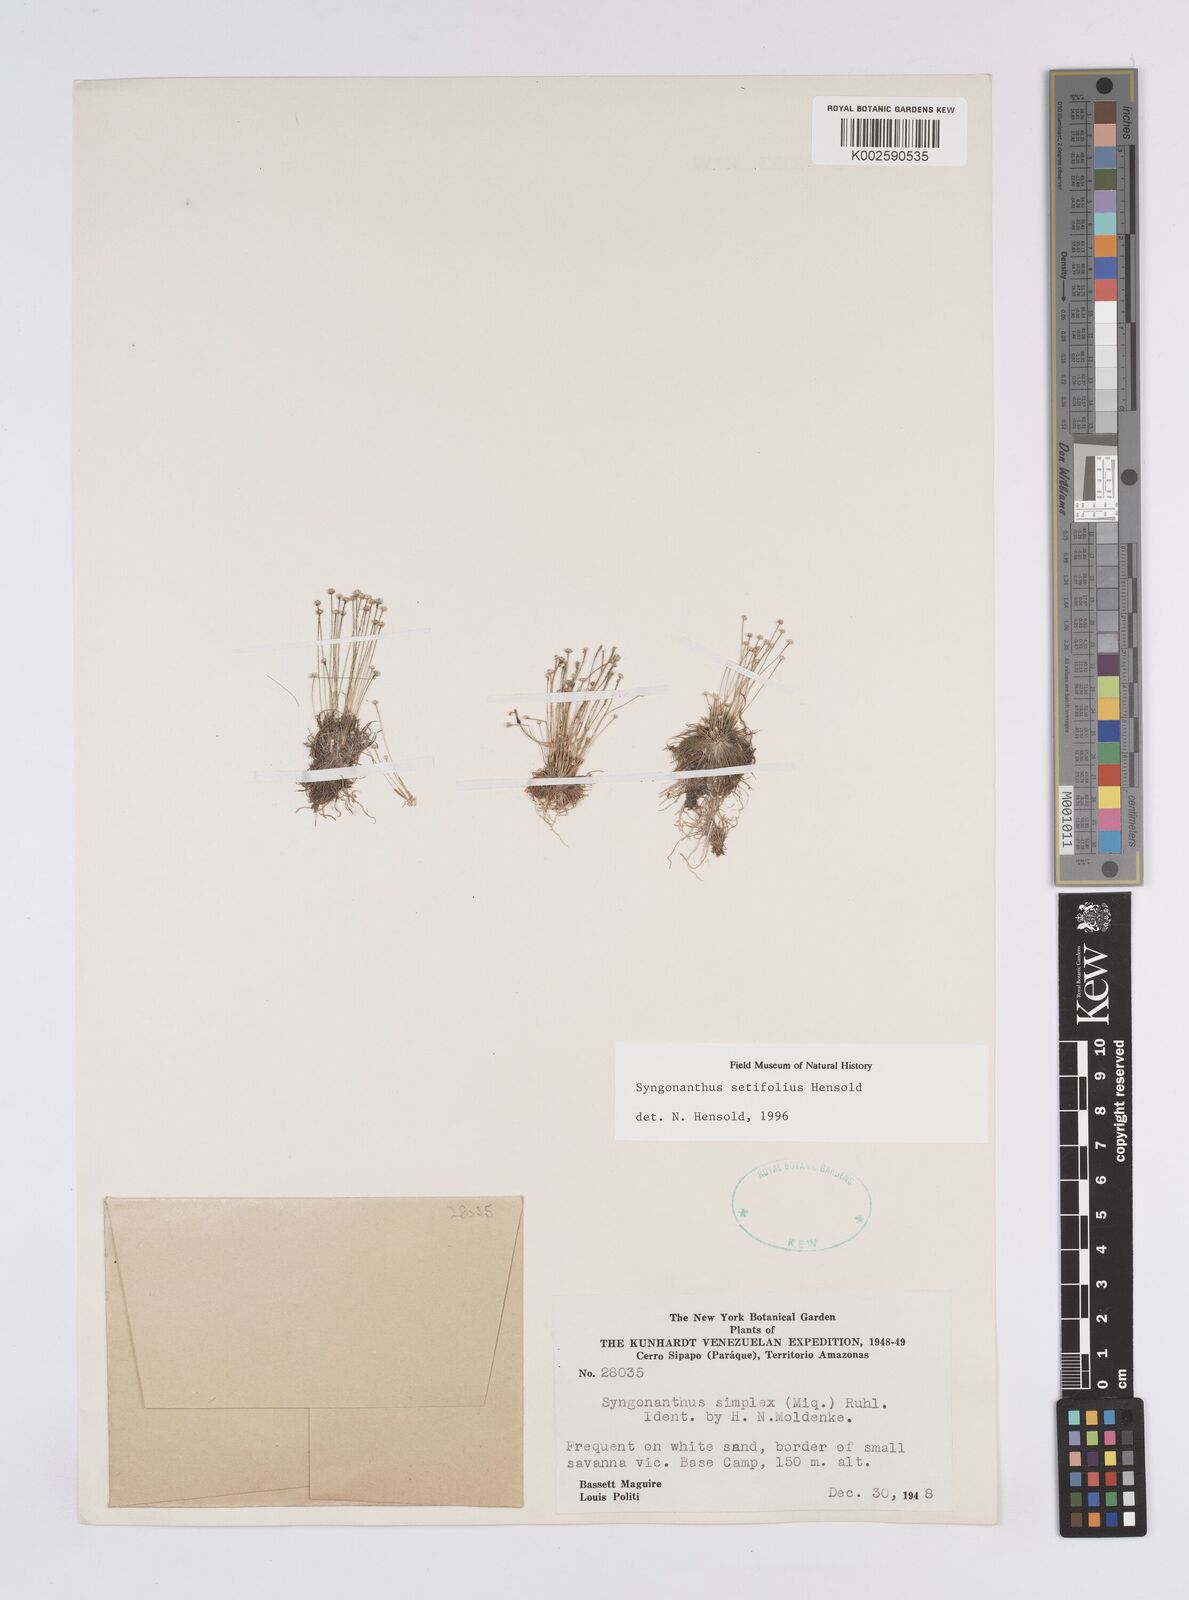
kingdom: Plantae
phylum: Tracheophyta
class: Liliopsida
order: Poales
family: Eriocaulaceae
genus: Syngonanthus
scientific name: Syngonanthus setifolius
